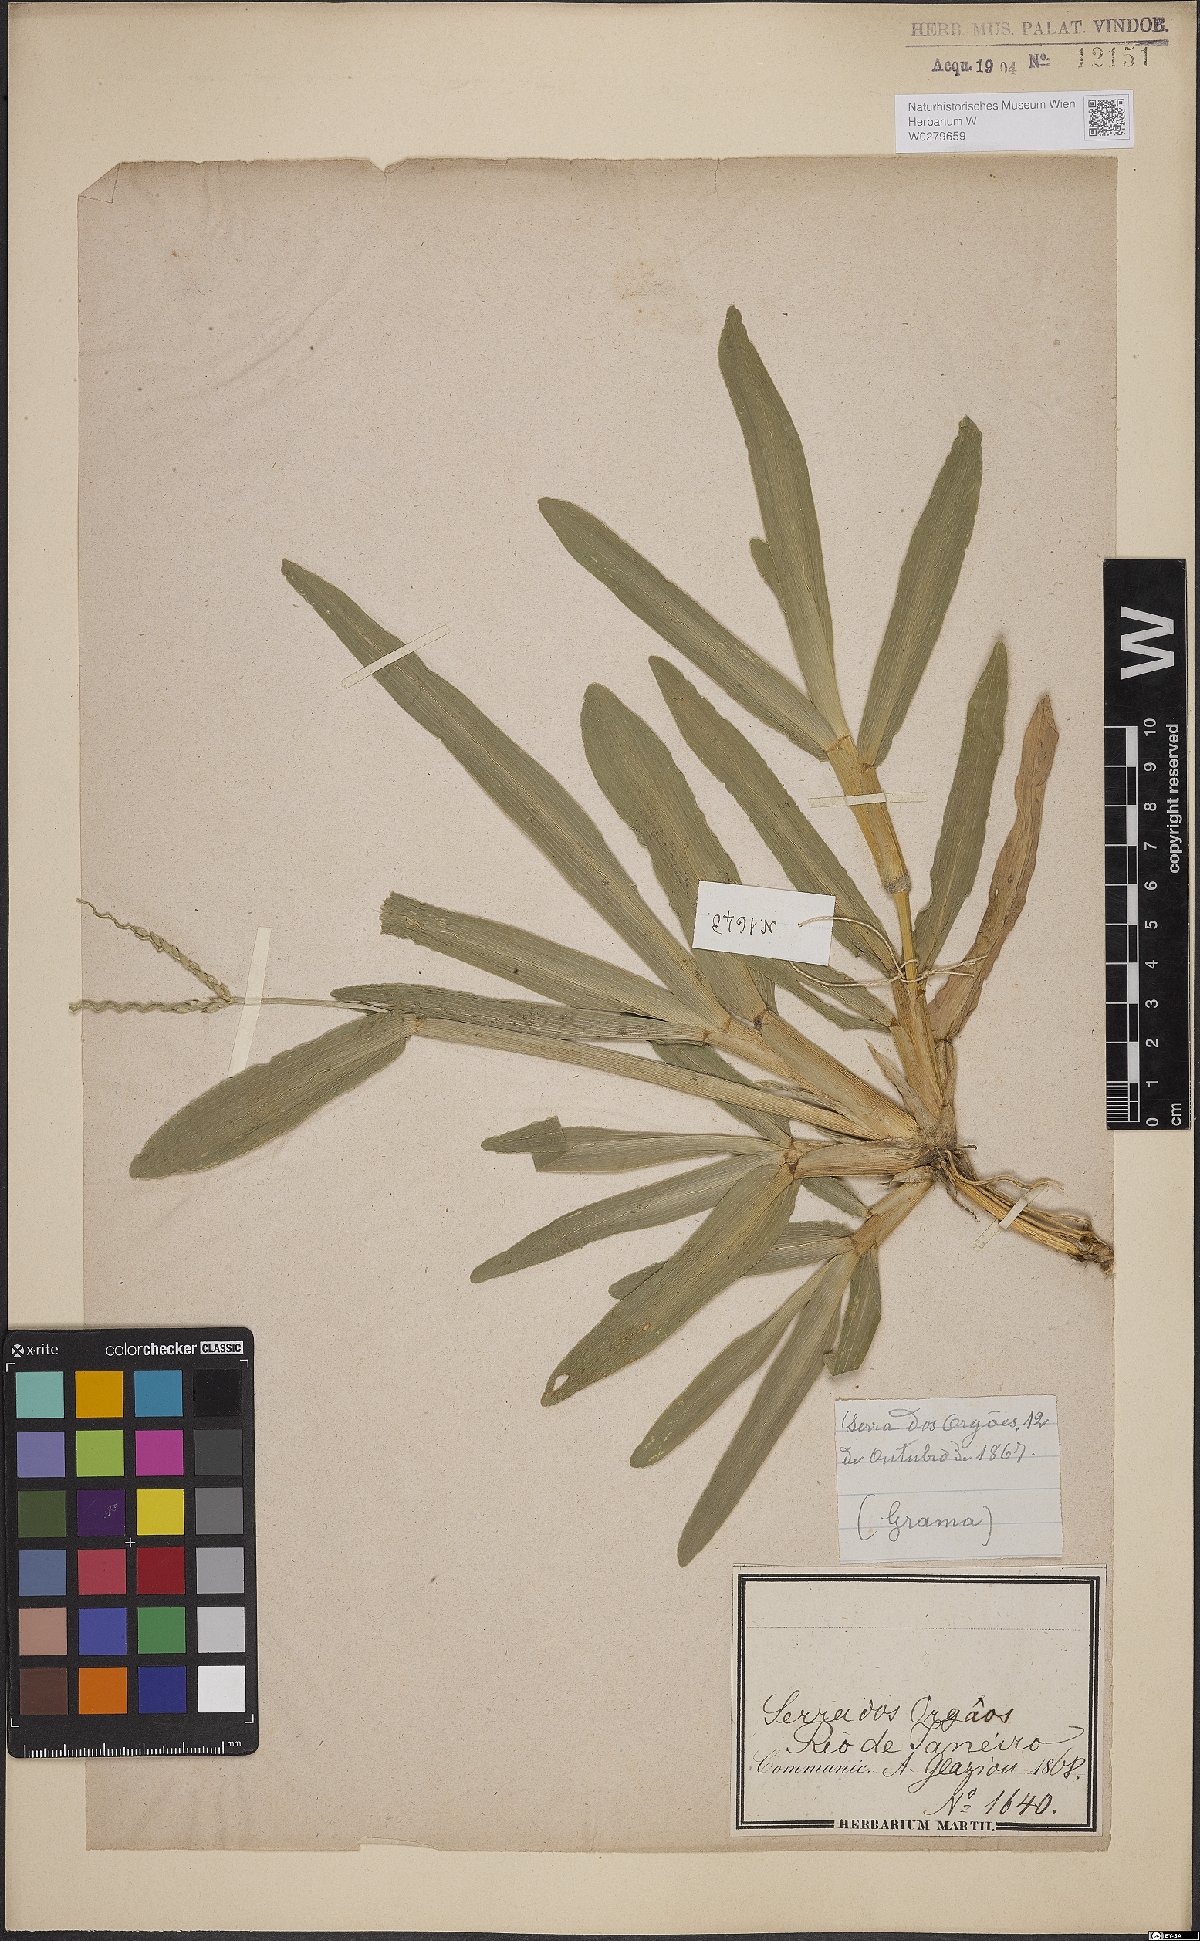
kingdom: Plantae
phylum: Tracheophyta
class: Liliopsida
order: Poales
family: Poaceae
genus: Axonopus
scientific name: Axonopus furcatus
